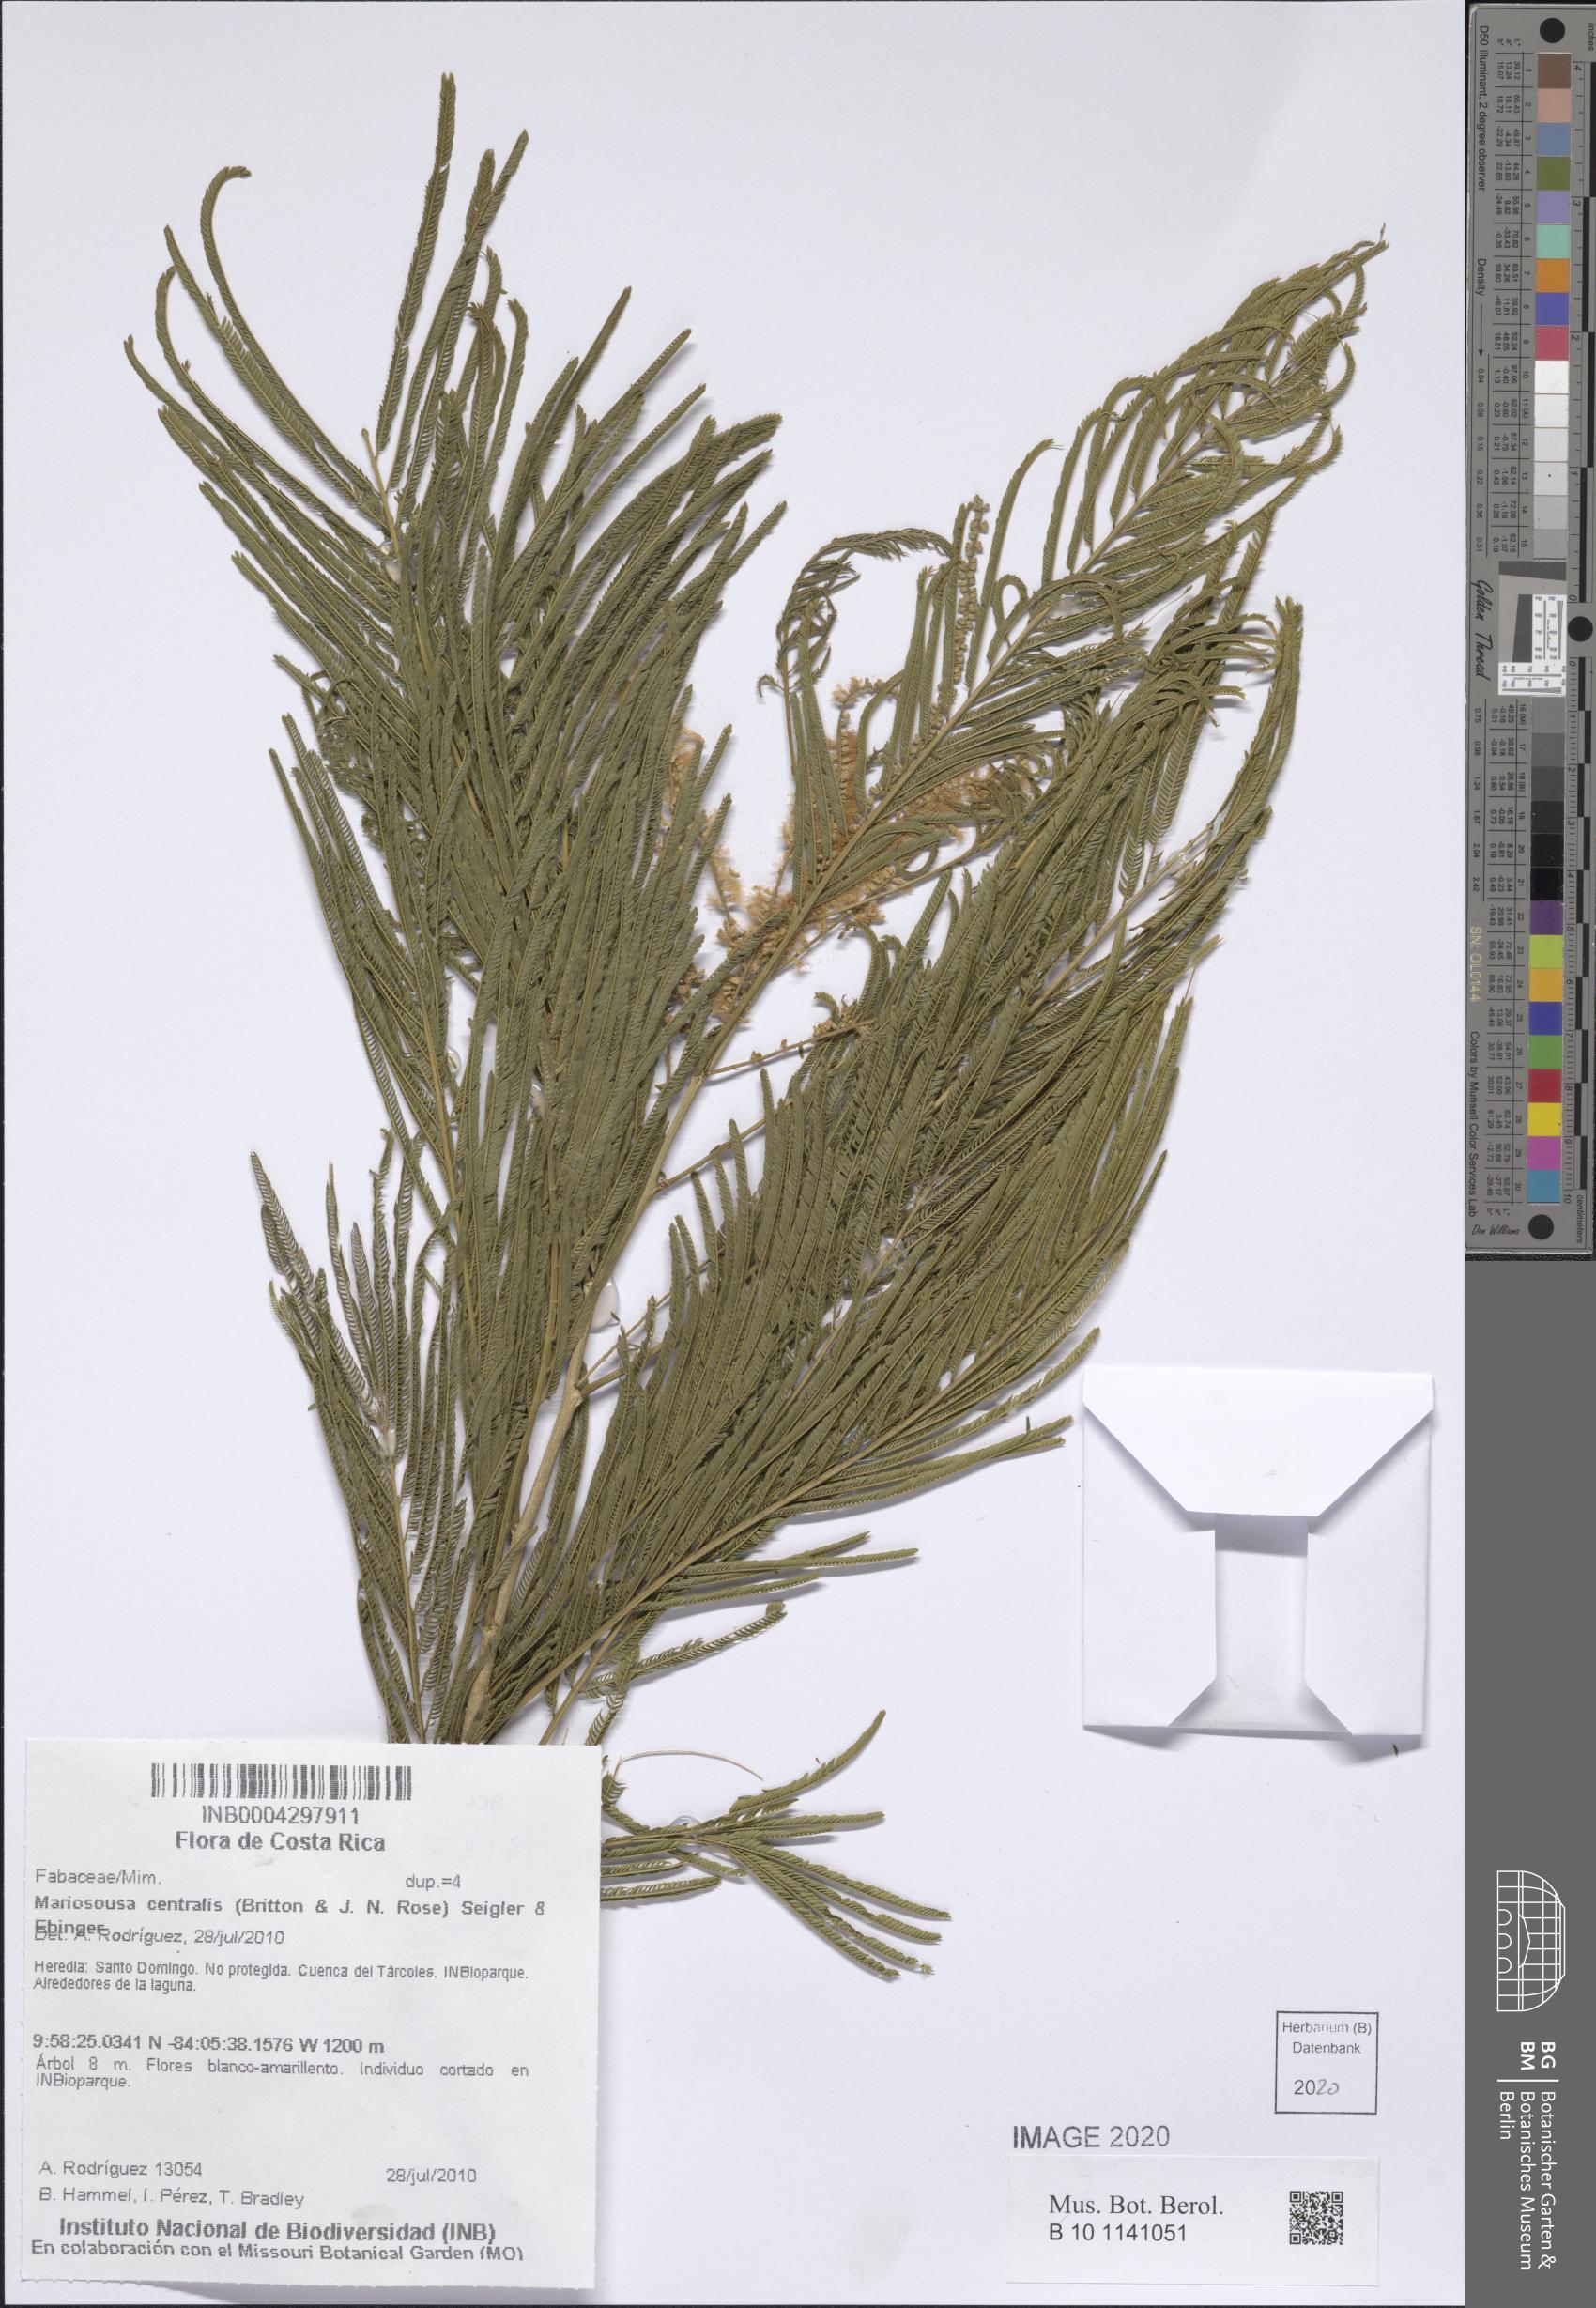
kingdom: Plantae
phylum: Tracheophyta
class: Magnoliopsida
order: Fabales
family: Fabaceae
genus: Mariosousa
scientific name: Mariosousa centralis
